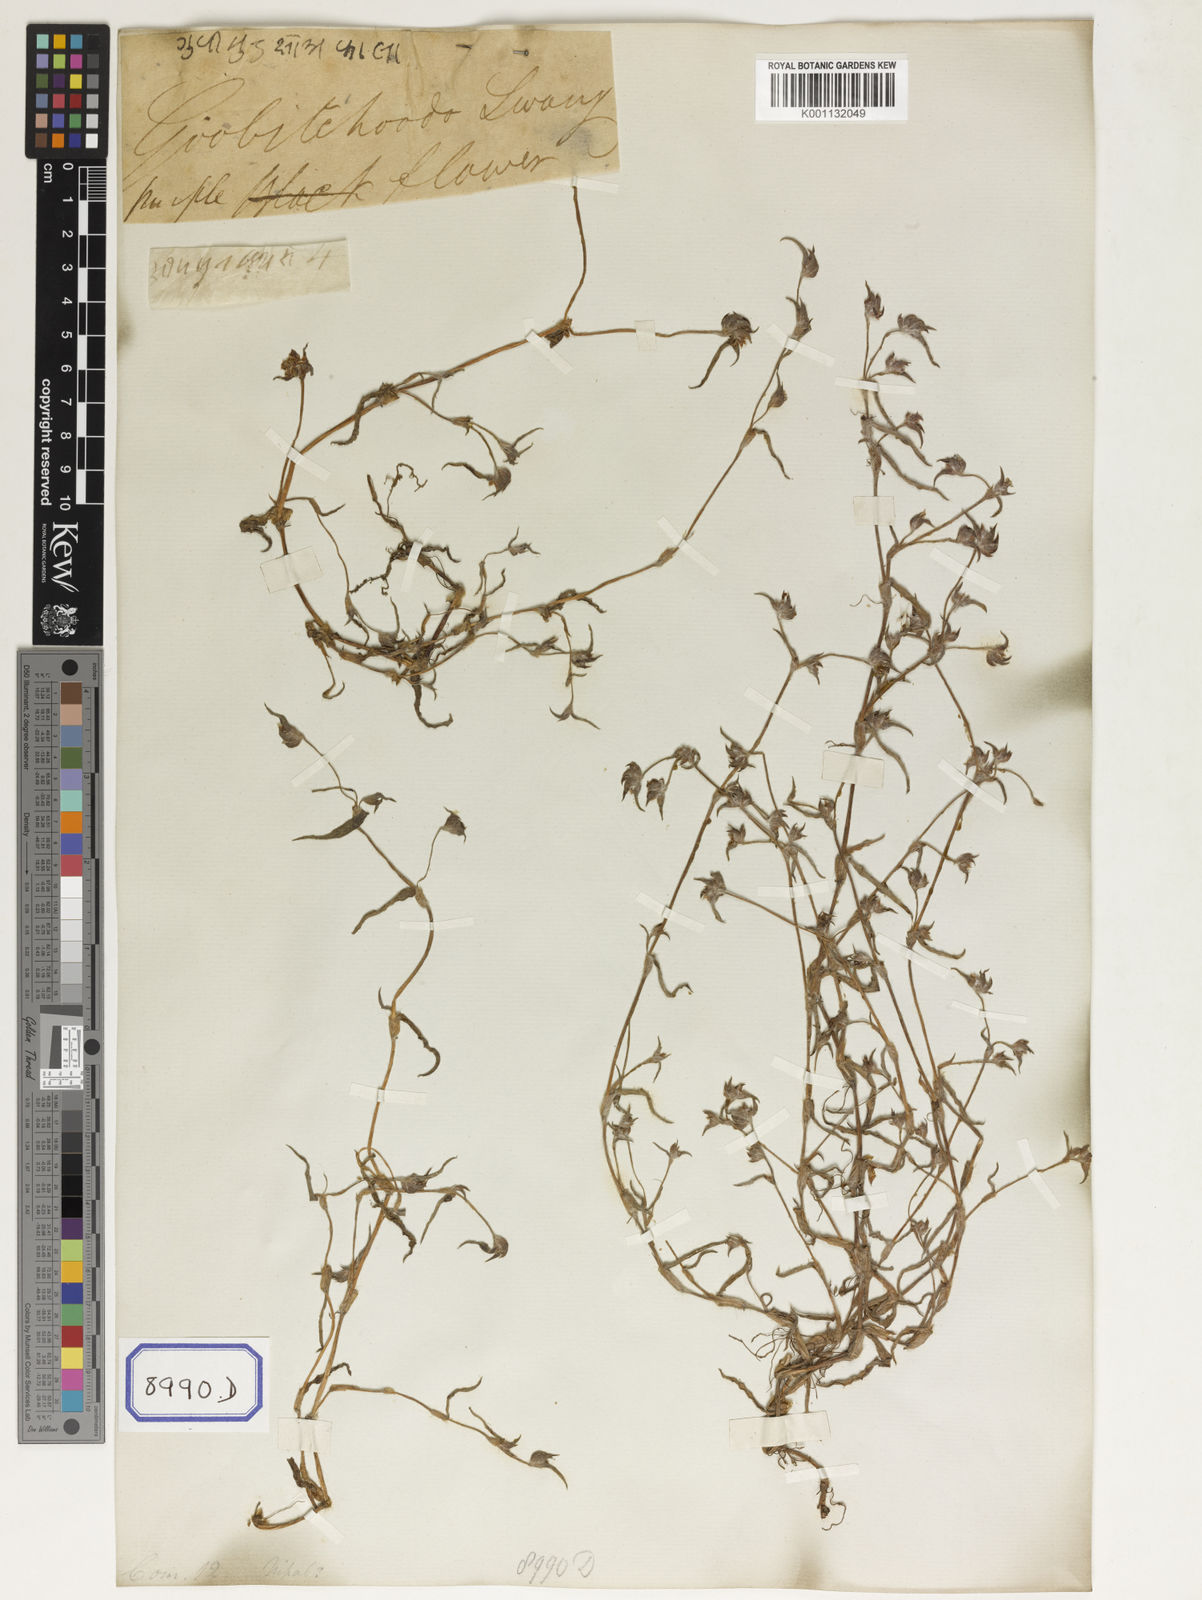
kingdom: Plantae
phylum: Tracheophyta
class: Liliopsida
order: Commelinales
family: Commelinaceae
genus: Cyanotis
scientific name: Cyanotis
